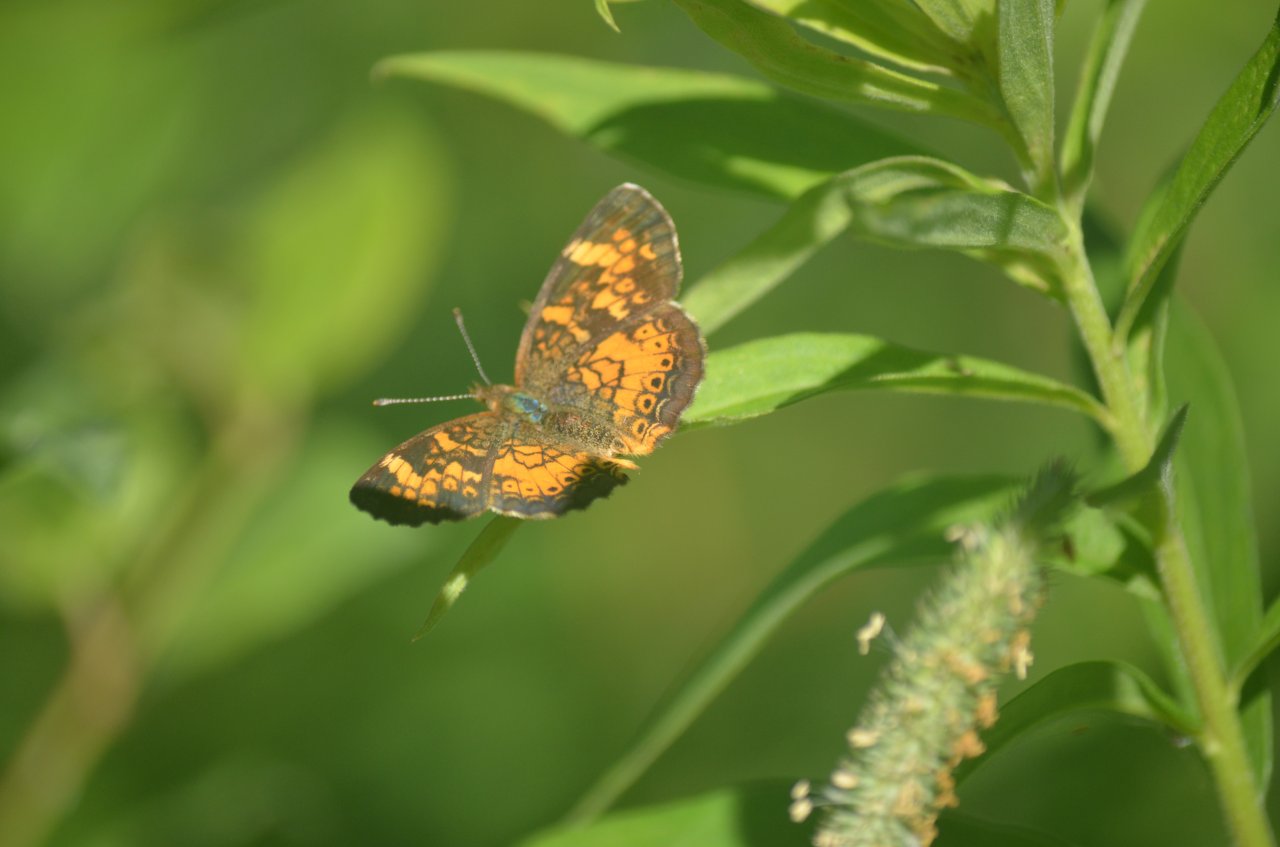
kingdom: Animalia
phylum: Arthropoda
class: Insecta
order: Lepidoptera
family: Nymphalidae
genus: Phyciodes
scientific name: Phyciodes tharos
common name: Northern Crescent
